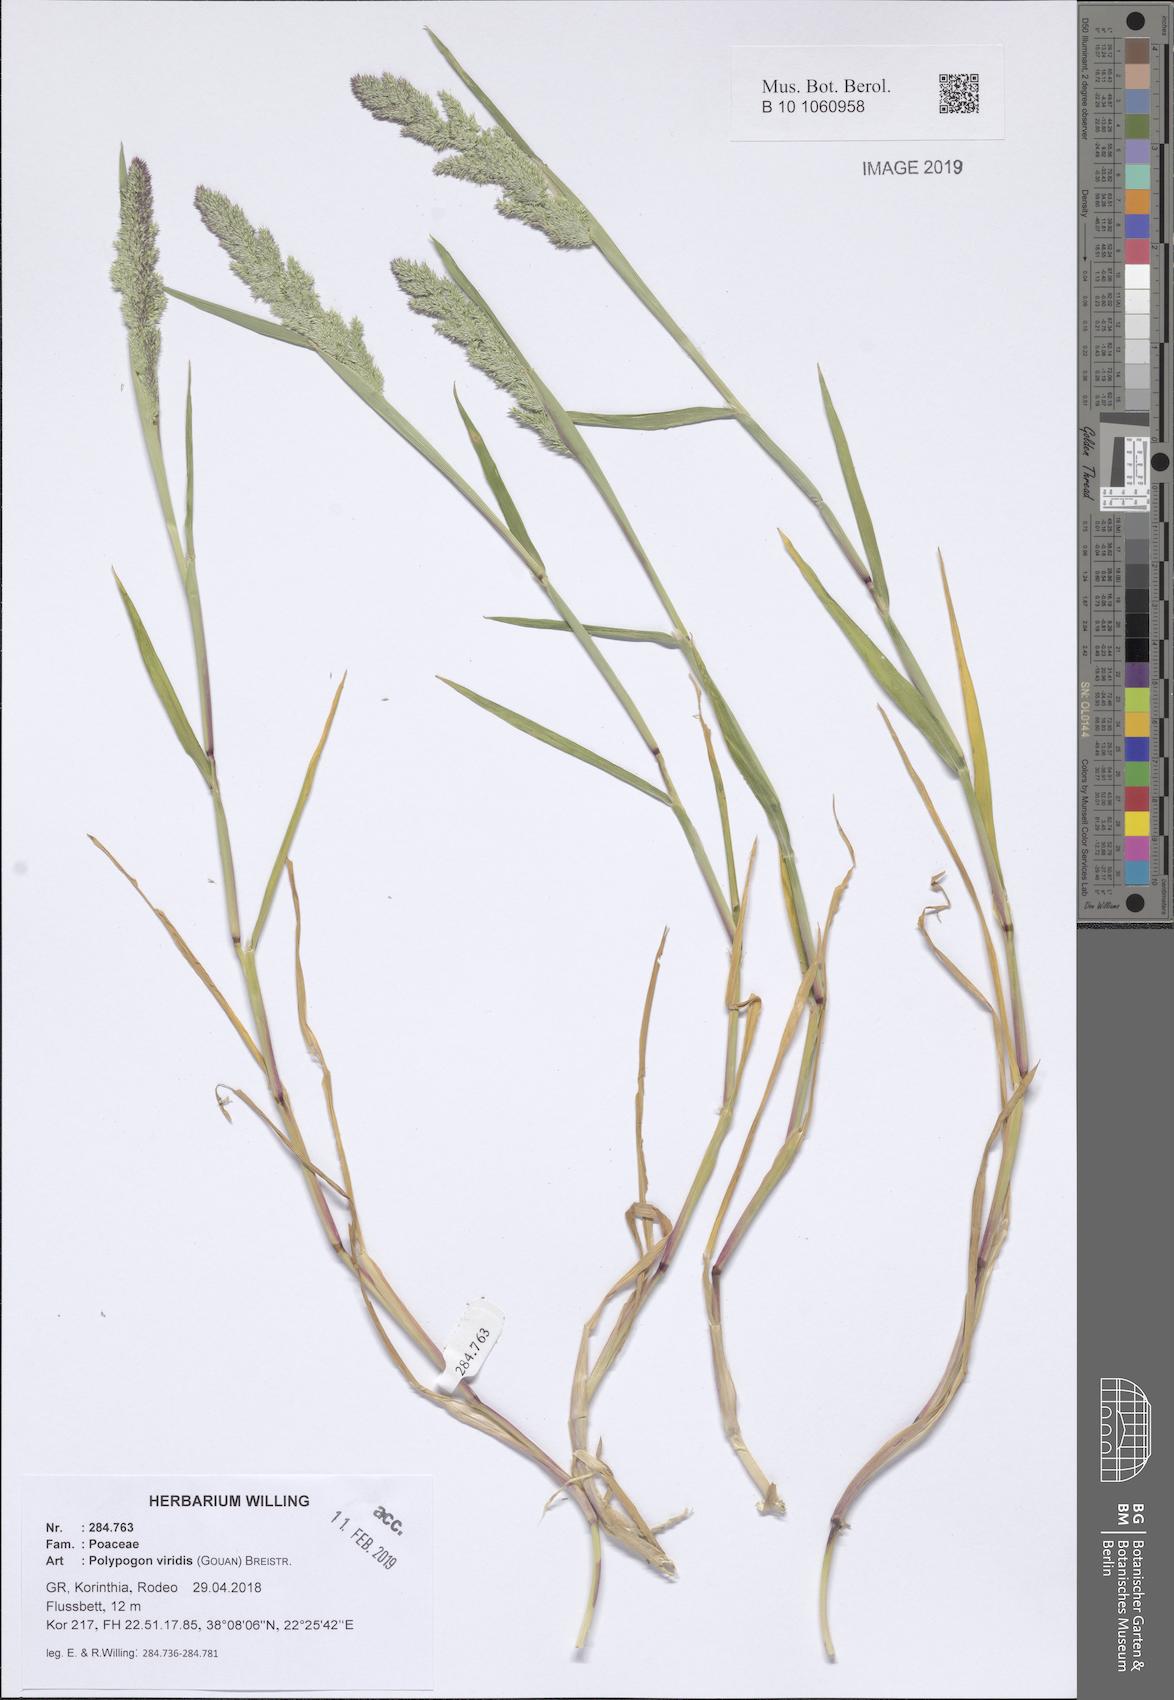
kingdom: Plantae
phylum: Tracheophyta
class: Liliopsida
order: Poales
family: Poaceae
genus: Polypogon
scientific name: Polypogon viridis
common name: Water bent
